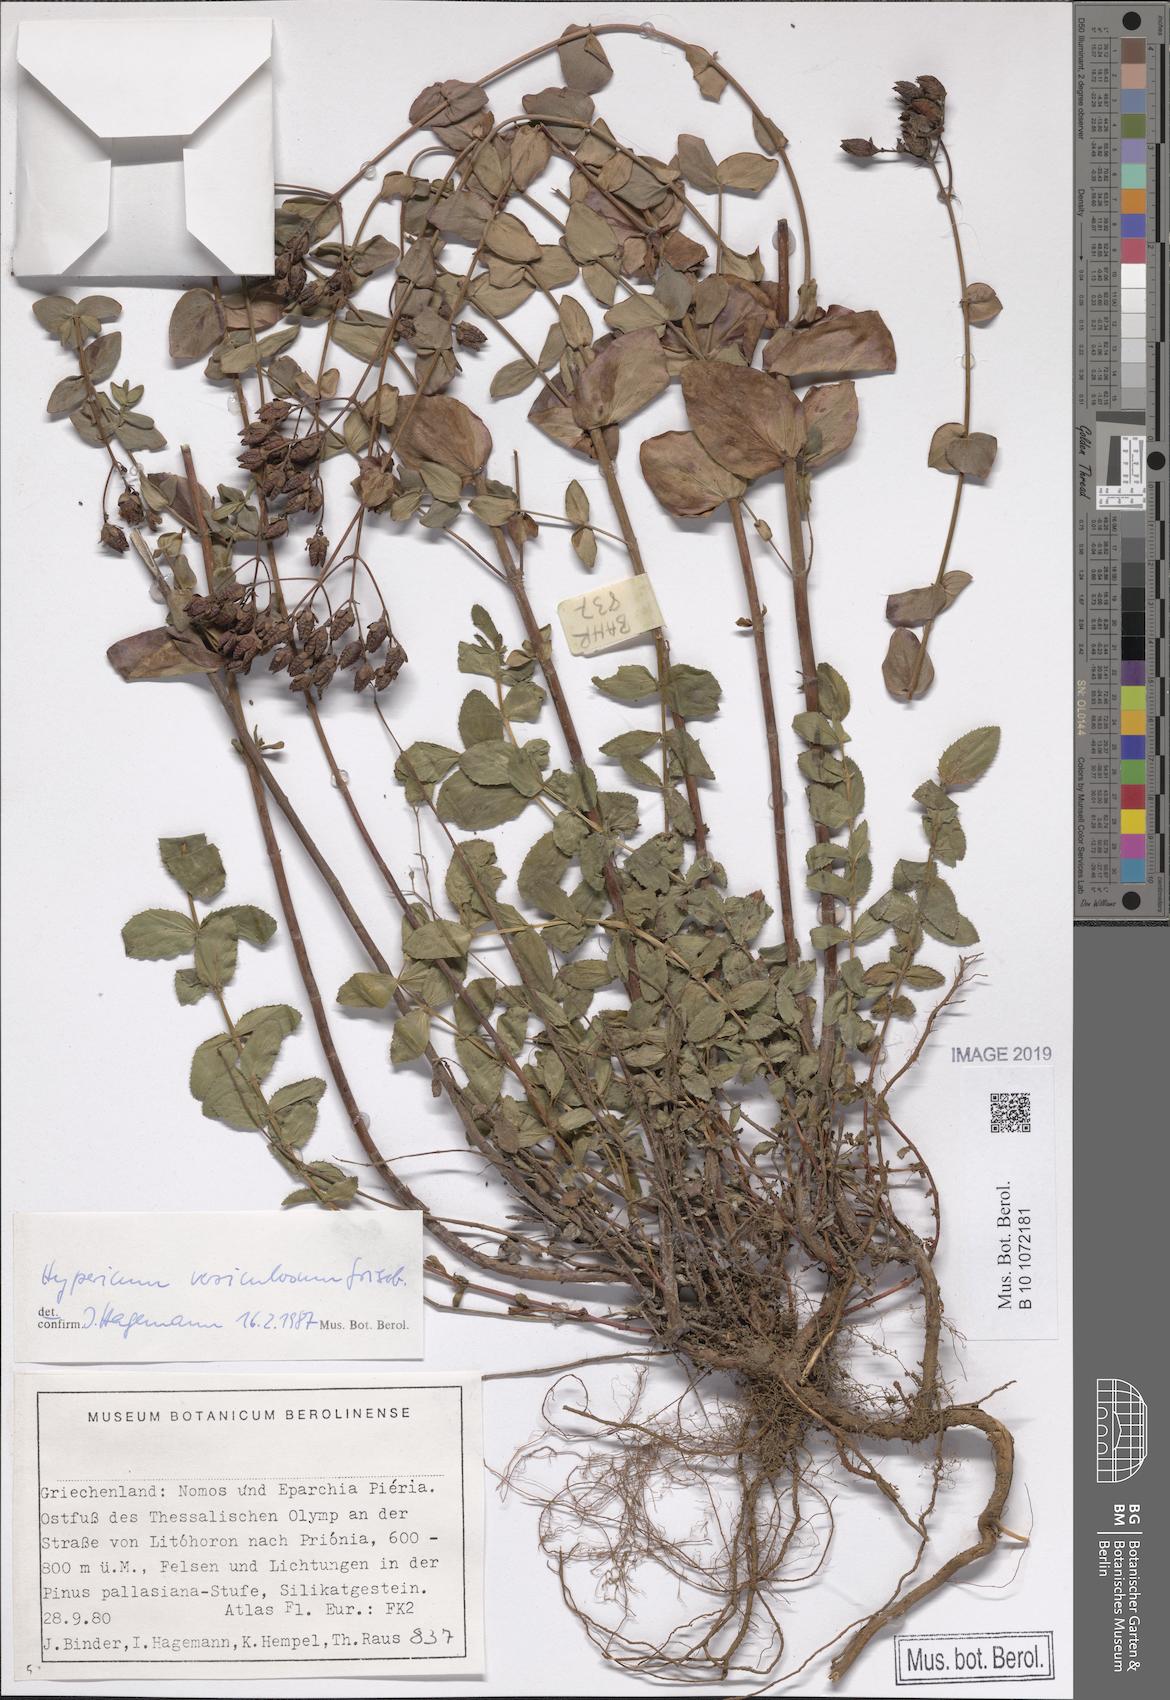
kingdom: Plantae
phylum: Tracheophyta
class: Magnoliopsida
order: Malpighiales
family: Hypericaceae
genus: Hypericum
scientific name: Hypericum vesiculosum
